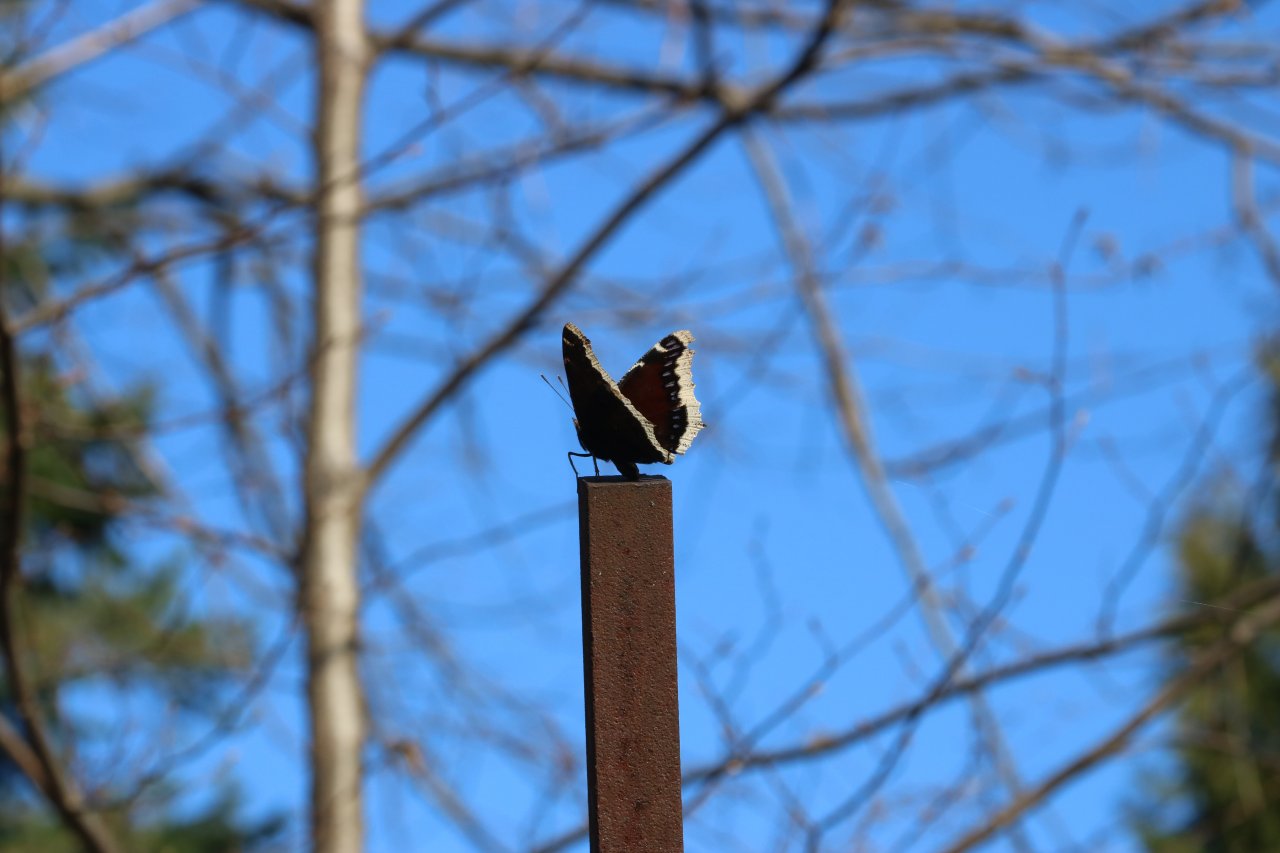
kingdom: Animalia
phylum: Arthropoda
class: Insecta
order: Lepidoptera
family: Nymphalidae
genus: Nymphalis
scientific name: Nymphalis antiopa
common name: Mourning Cloak
